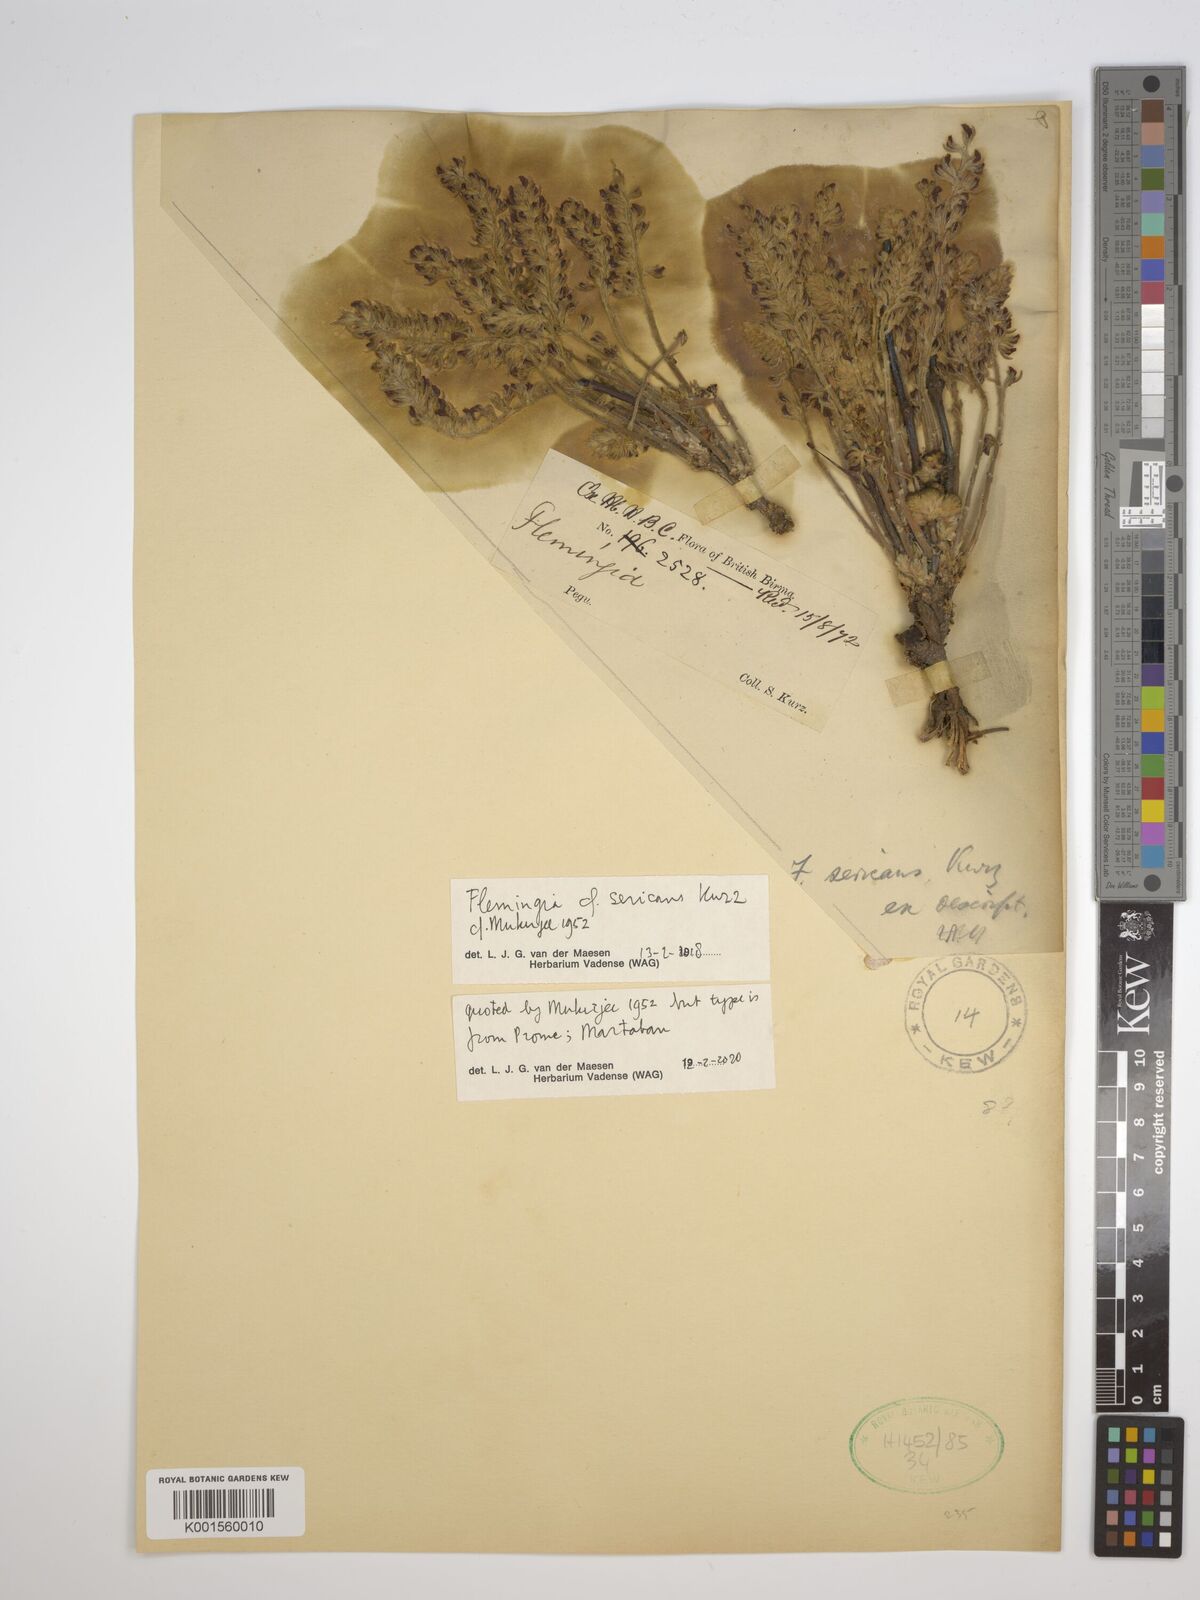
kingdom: Plantae
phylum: Tracheophyta
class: Magnoliopsida
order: Fabales
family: Fabaceae
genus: Flemingia
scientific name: Flemingia macrophylla
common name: Flemingia
